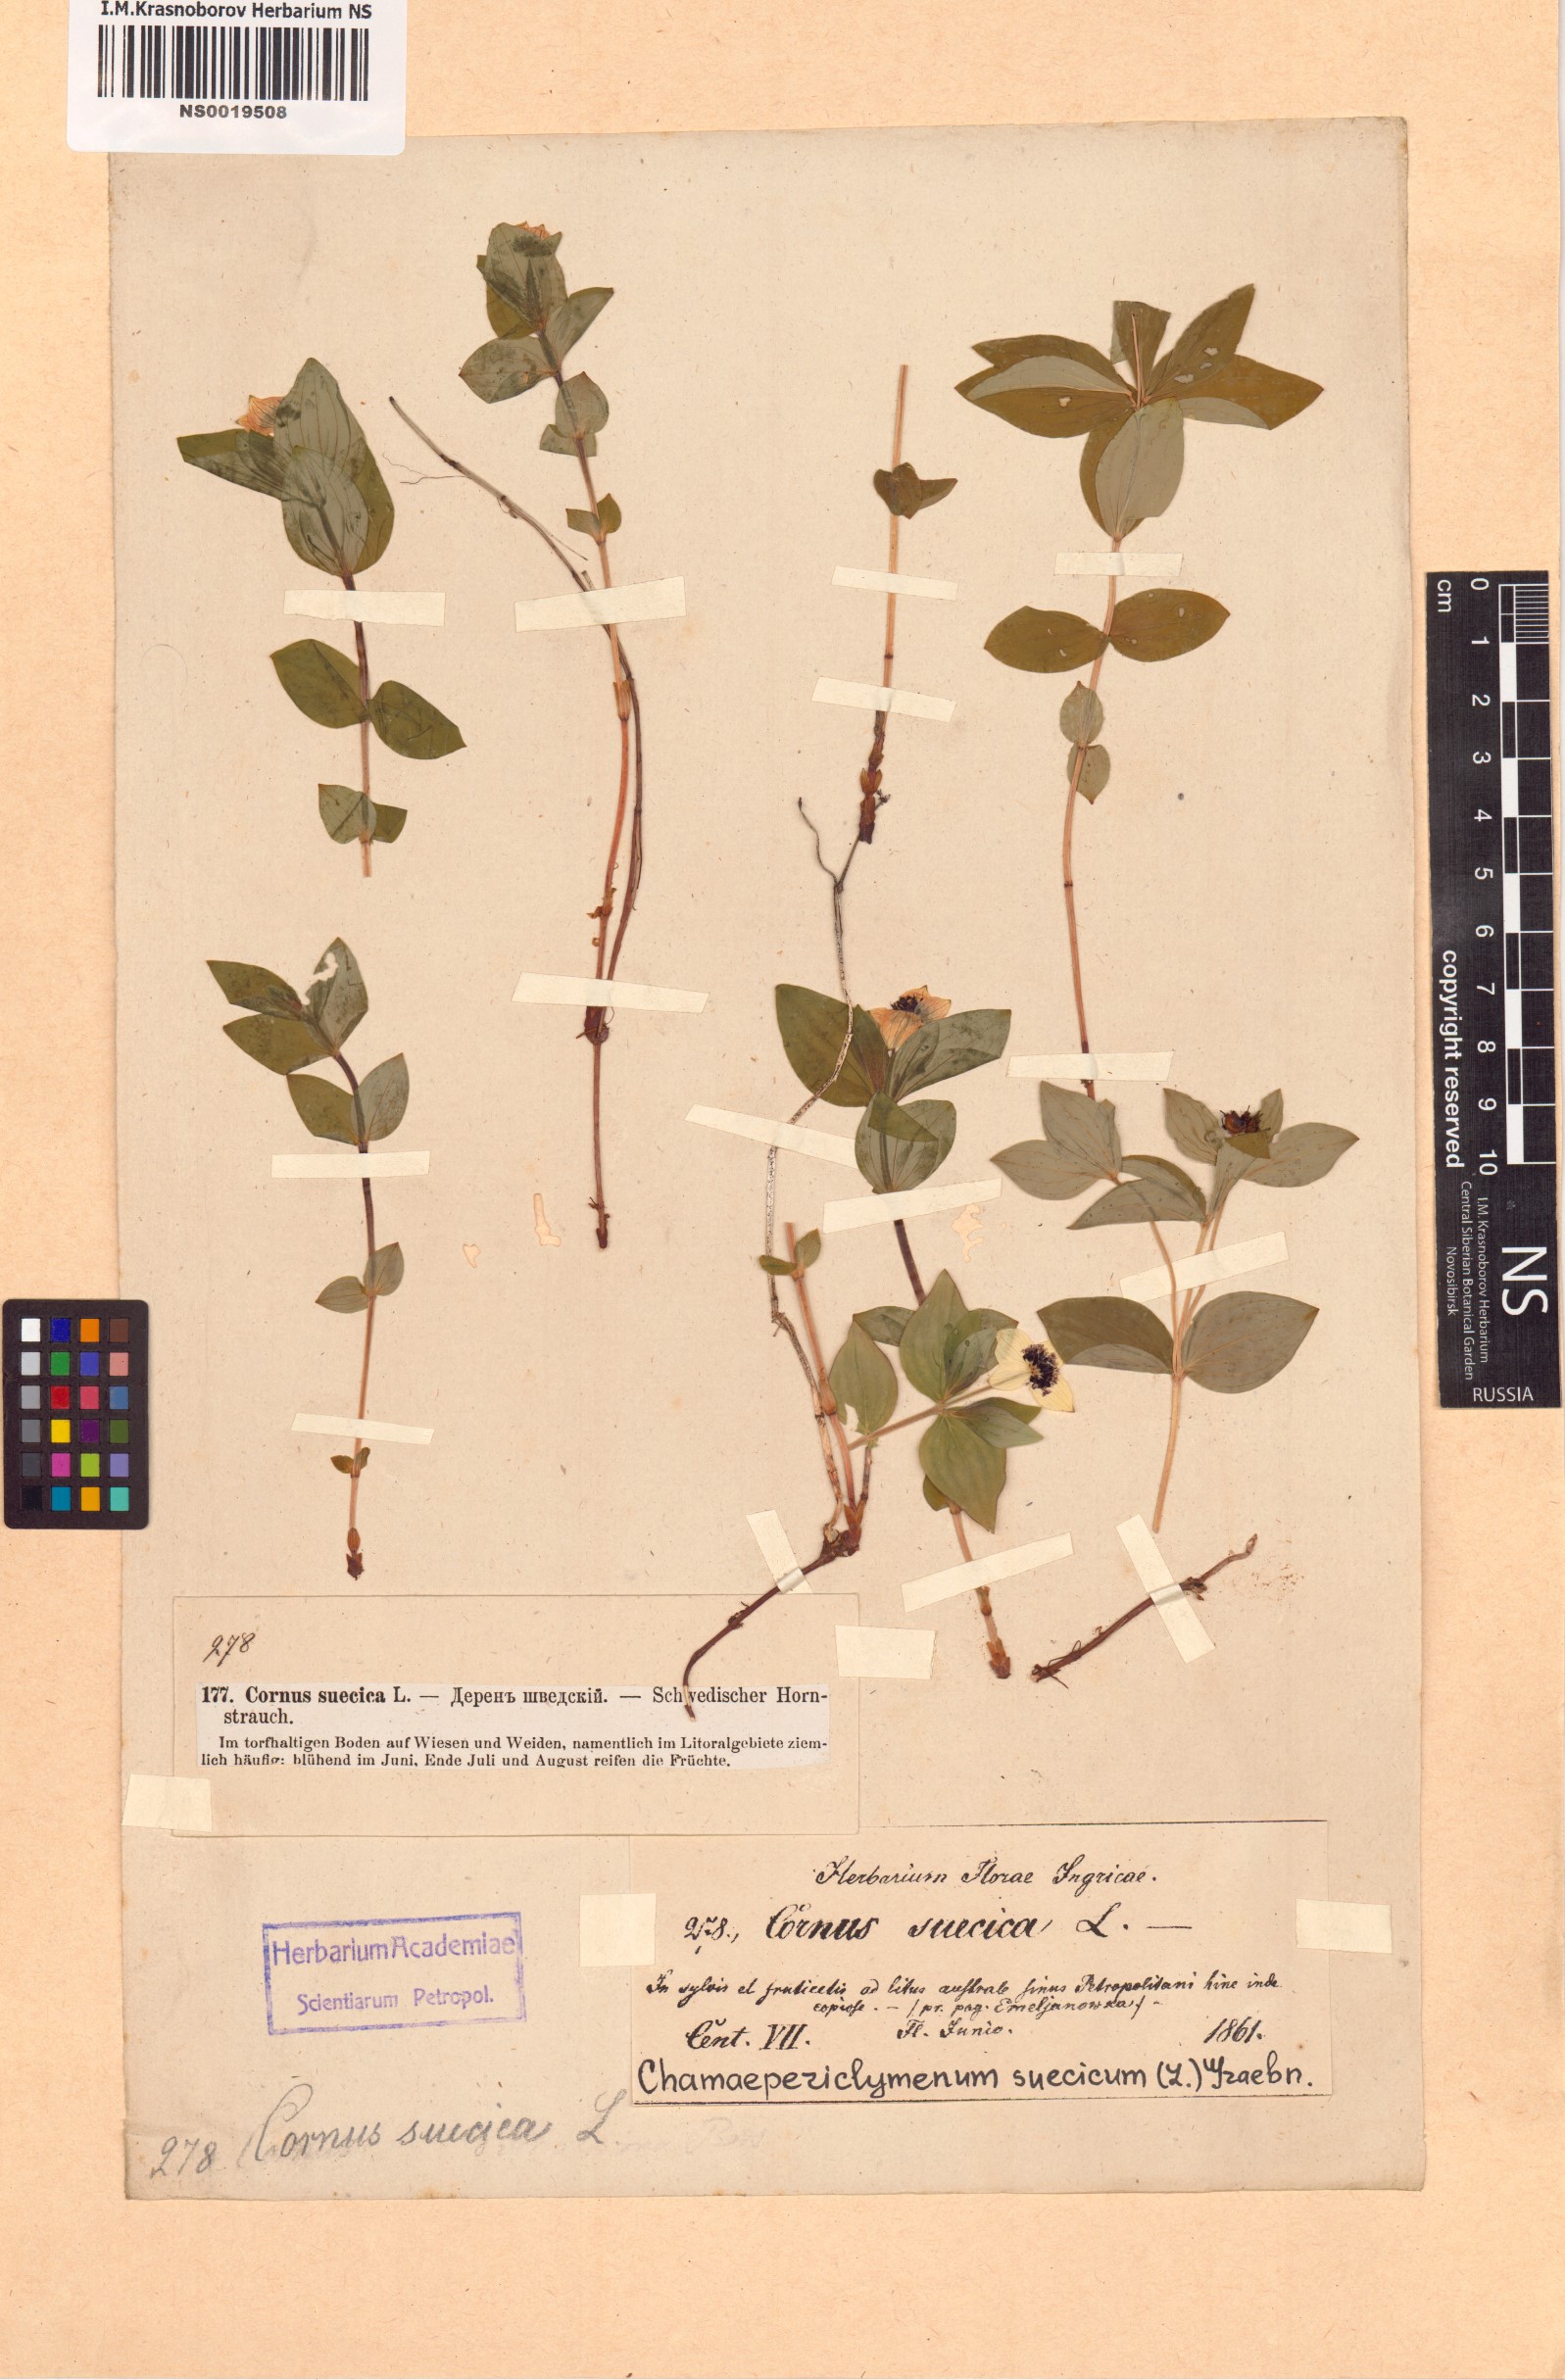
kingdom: Plantae
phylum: Tracheophyta
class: Magnoliopsida
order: Cornales
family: Cornaceae
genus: Cornus
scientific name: Cornus suecica
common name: Dwarf cornel
